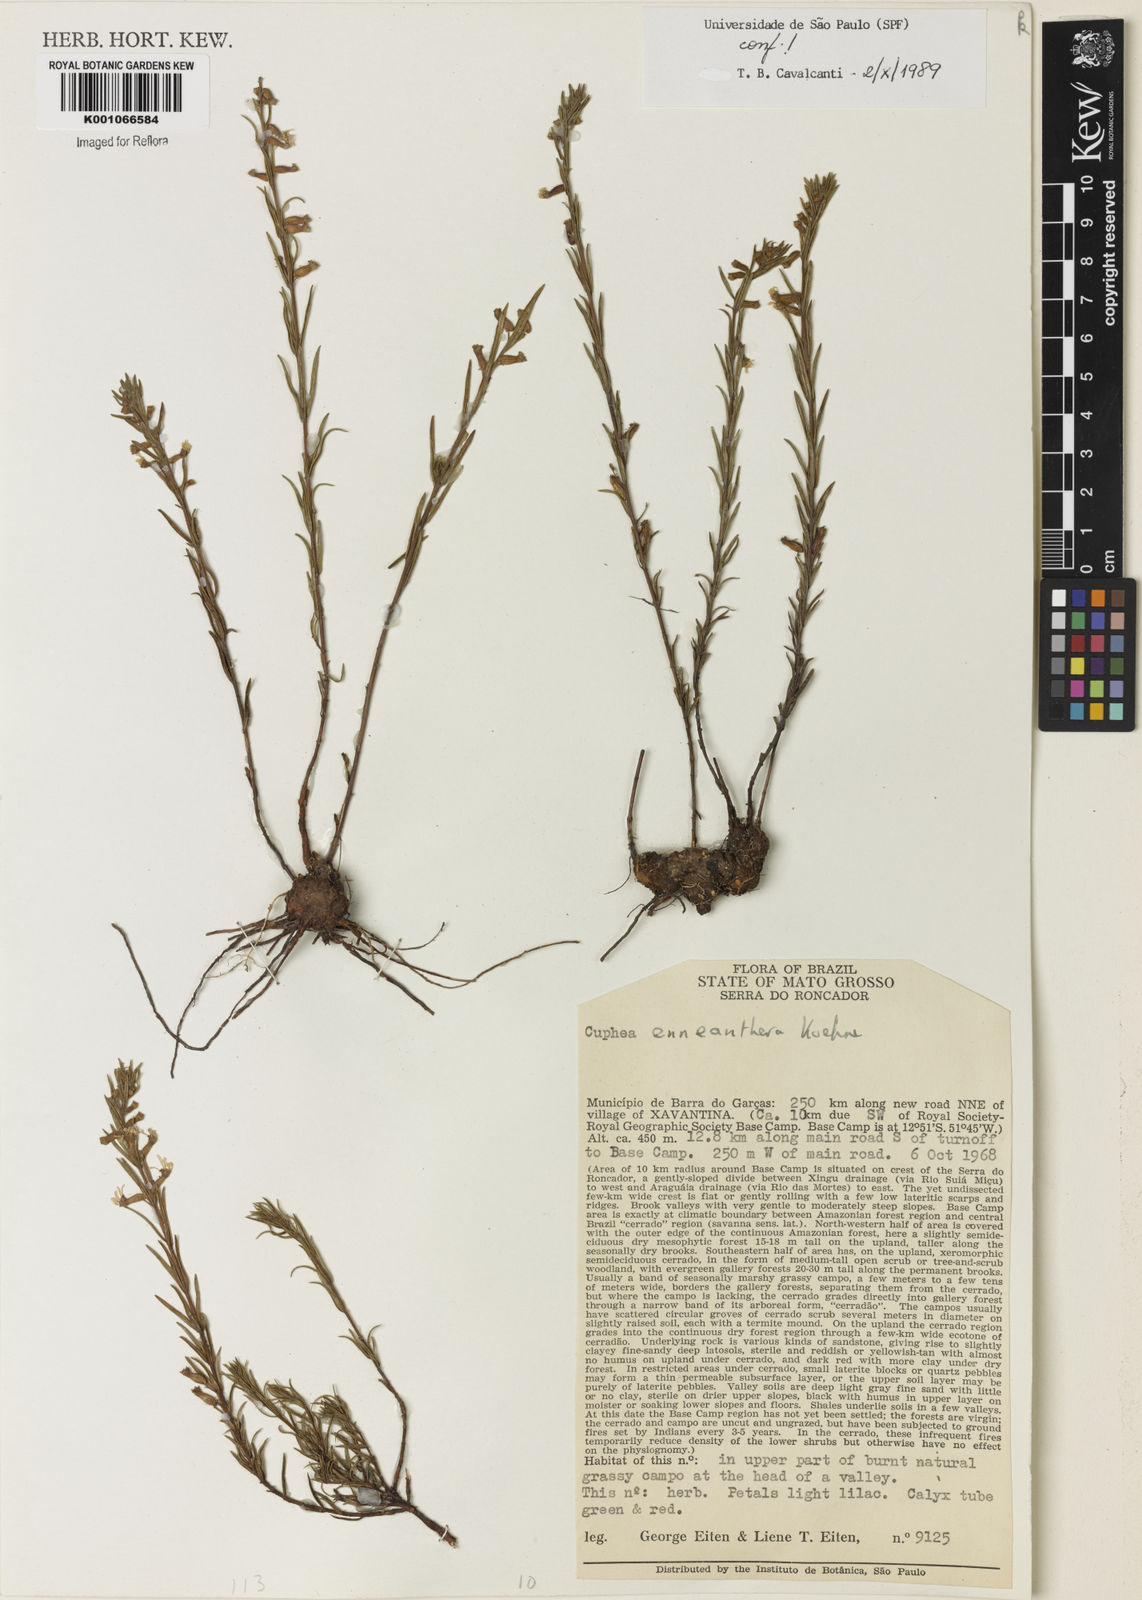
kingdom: Plantae
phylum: Tracheophyta
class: Magnoliopsida
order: Myrtales
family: Lythraceae
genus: Cuphea
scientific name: Cuphea retrorsicapilla
